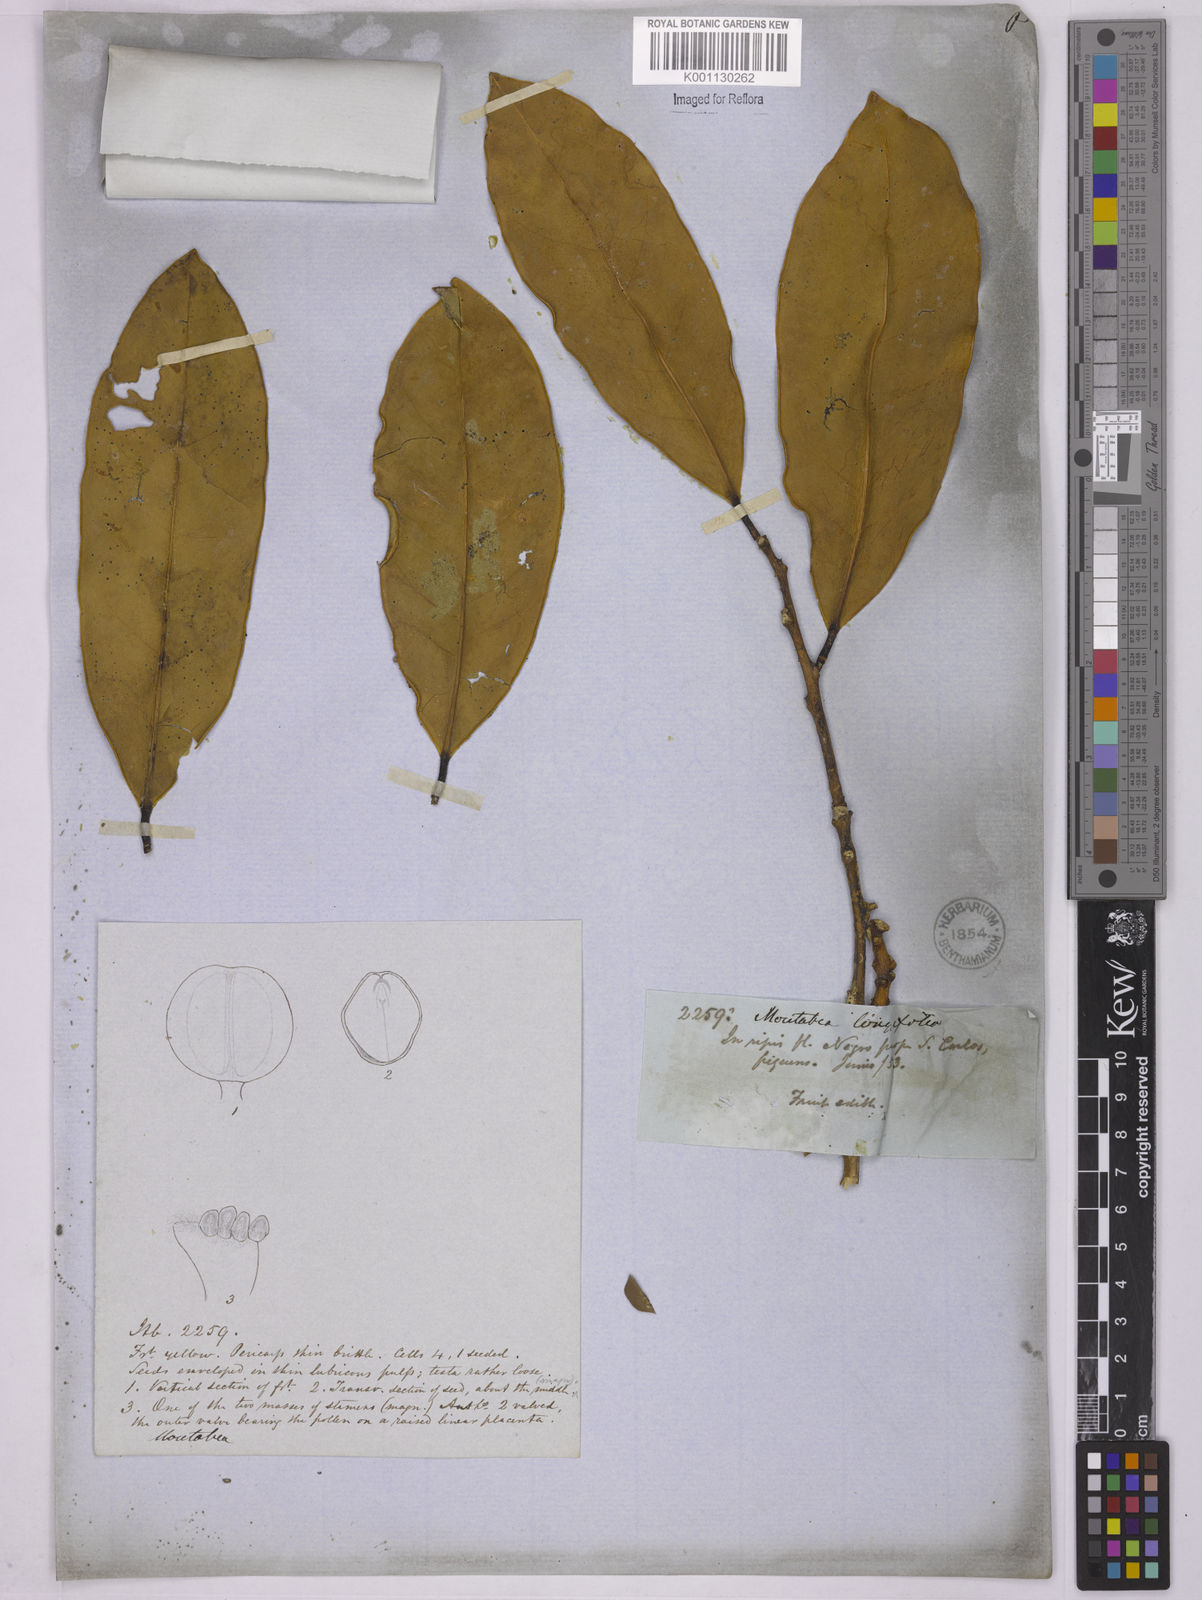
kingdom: Plantae
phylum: Tracheophyta
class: Magnoliopsida
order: Fabales
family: Polygalaceae
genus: Moutabea
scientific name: Moutabea aculeata
